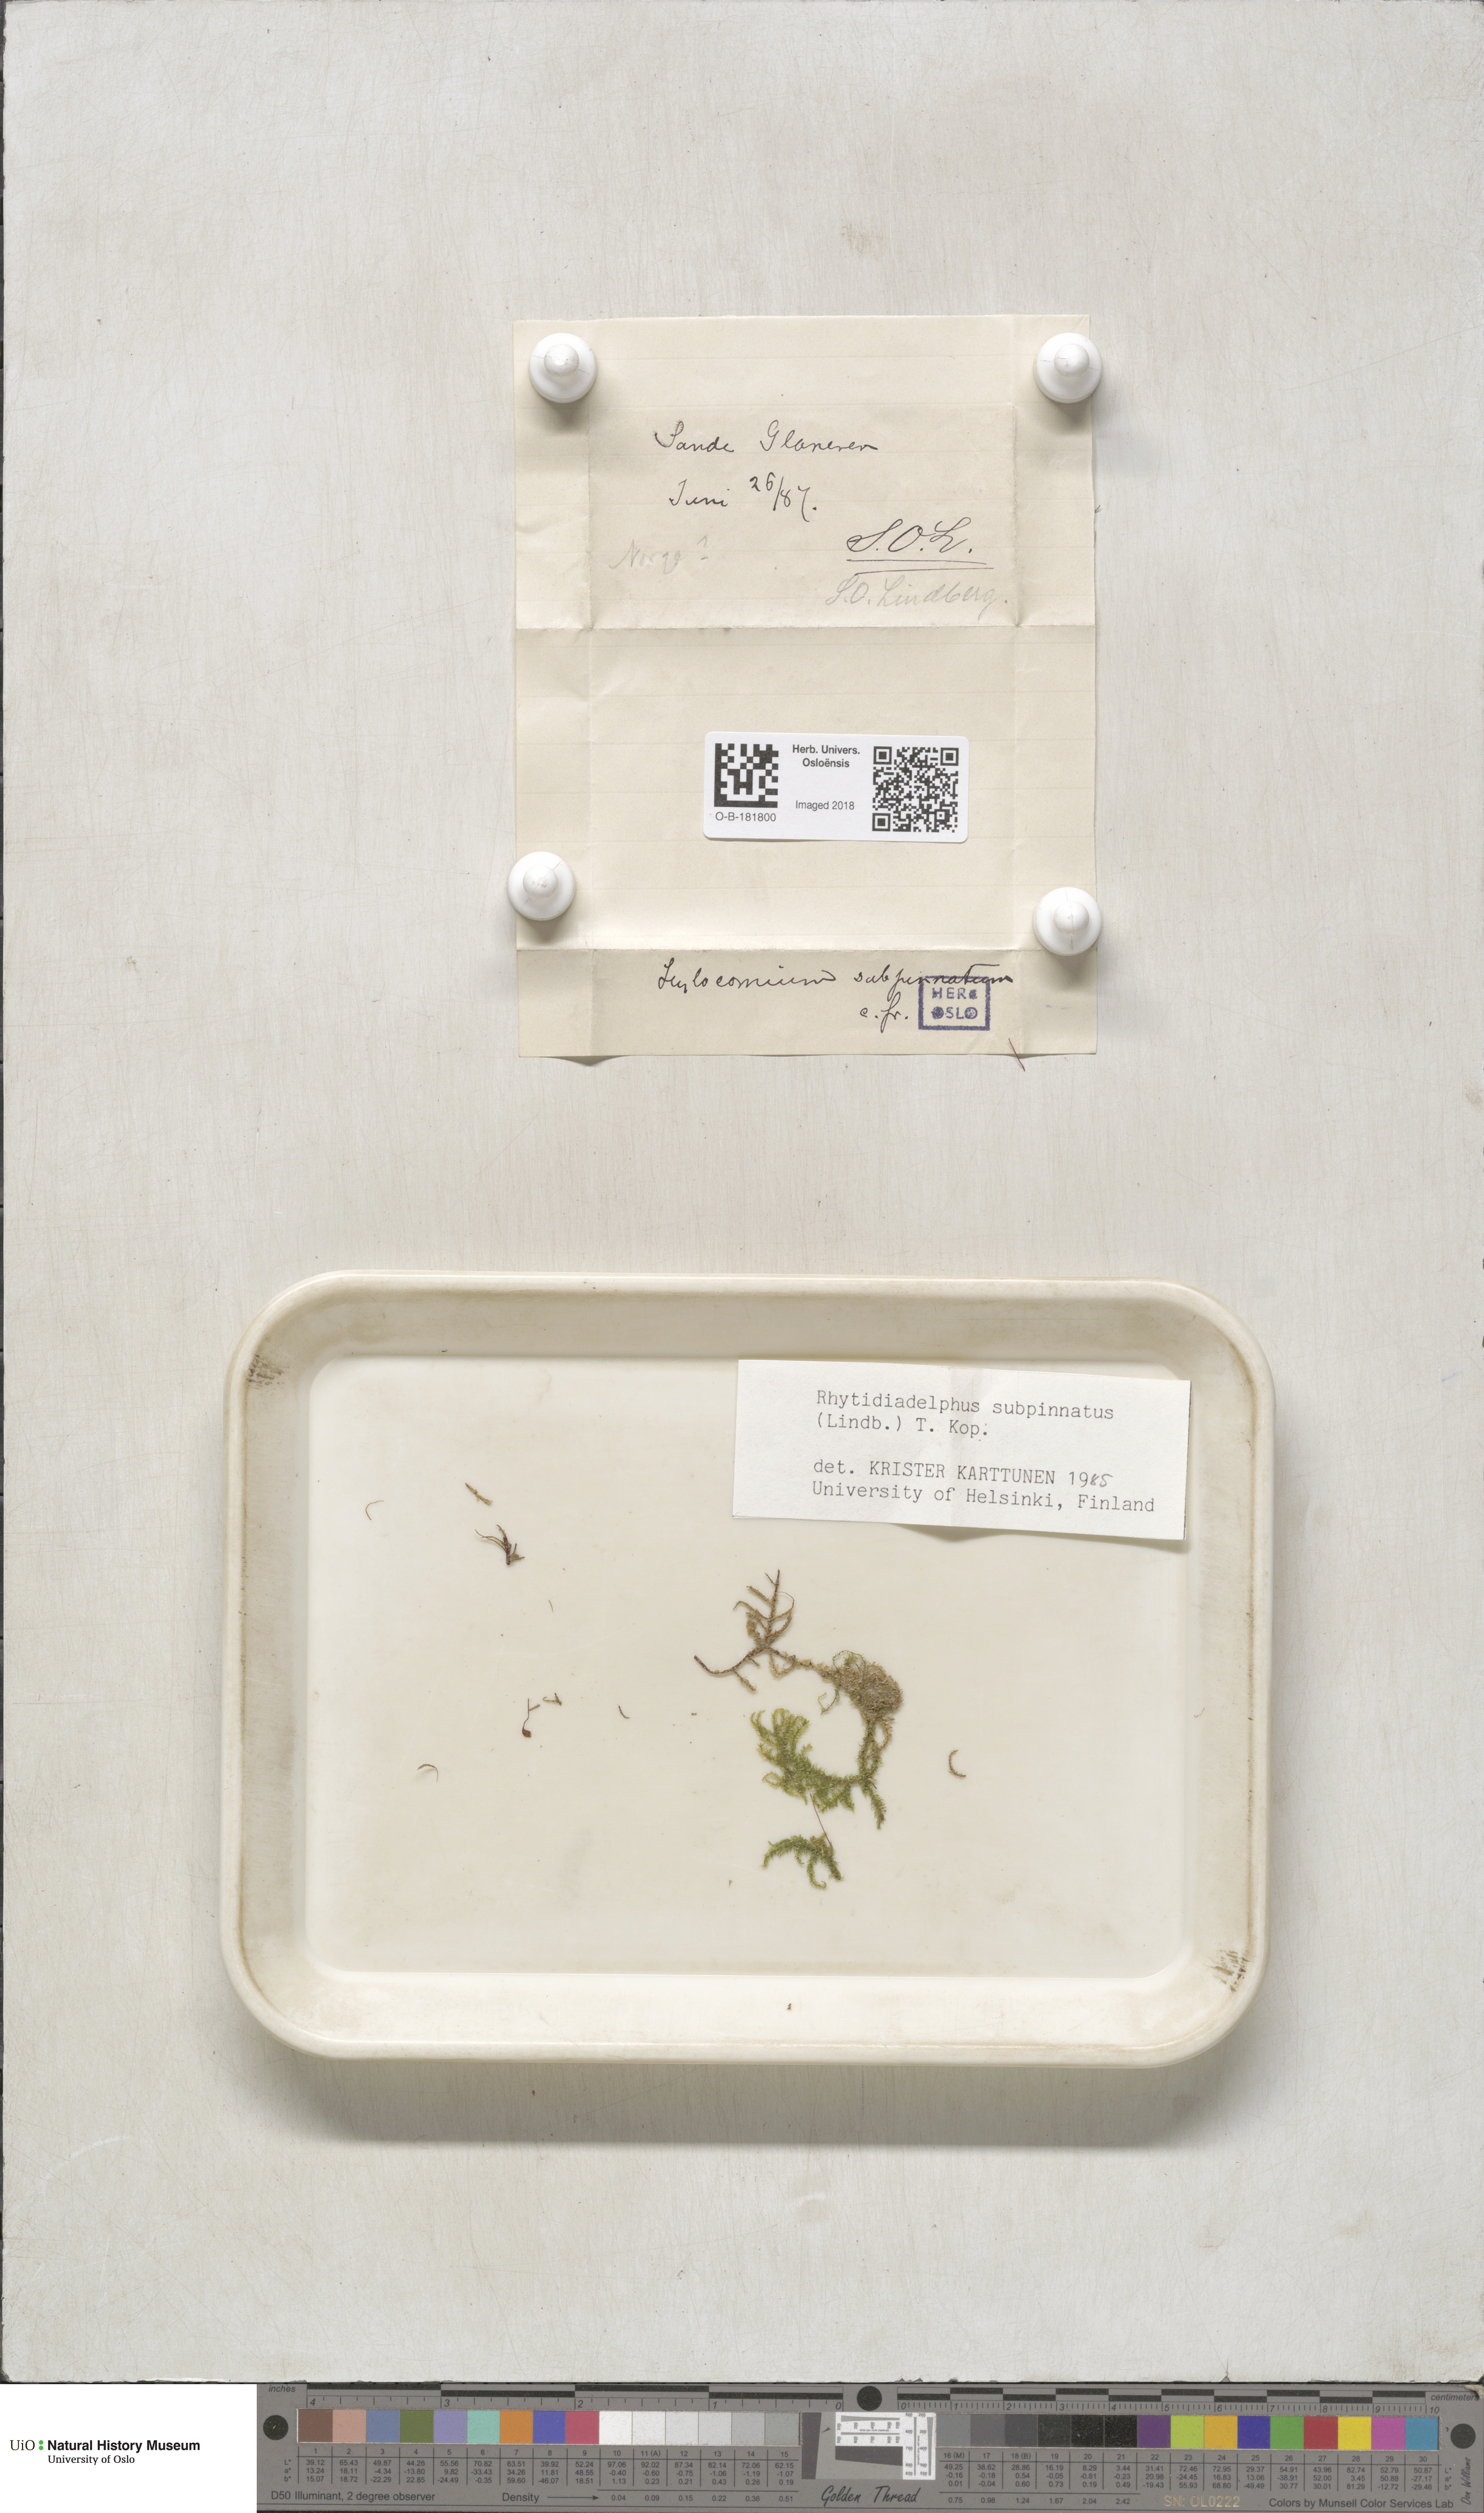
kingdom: Plantae
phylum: Bryophyta
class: Bryopsida
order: Hypnales
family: Hylocomiaceae
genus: Rhytidiadelphus
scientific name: Rhytidiadelphus subpinnatus
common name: Subpinnate gooseneck moss
